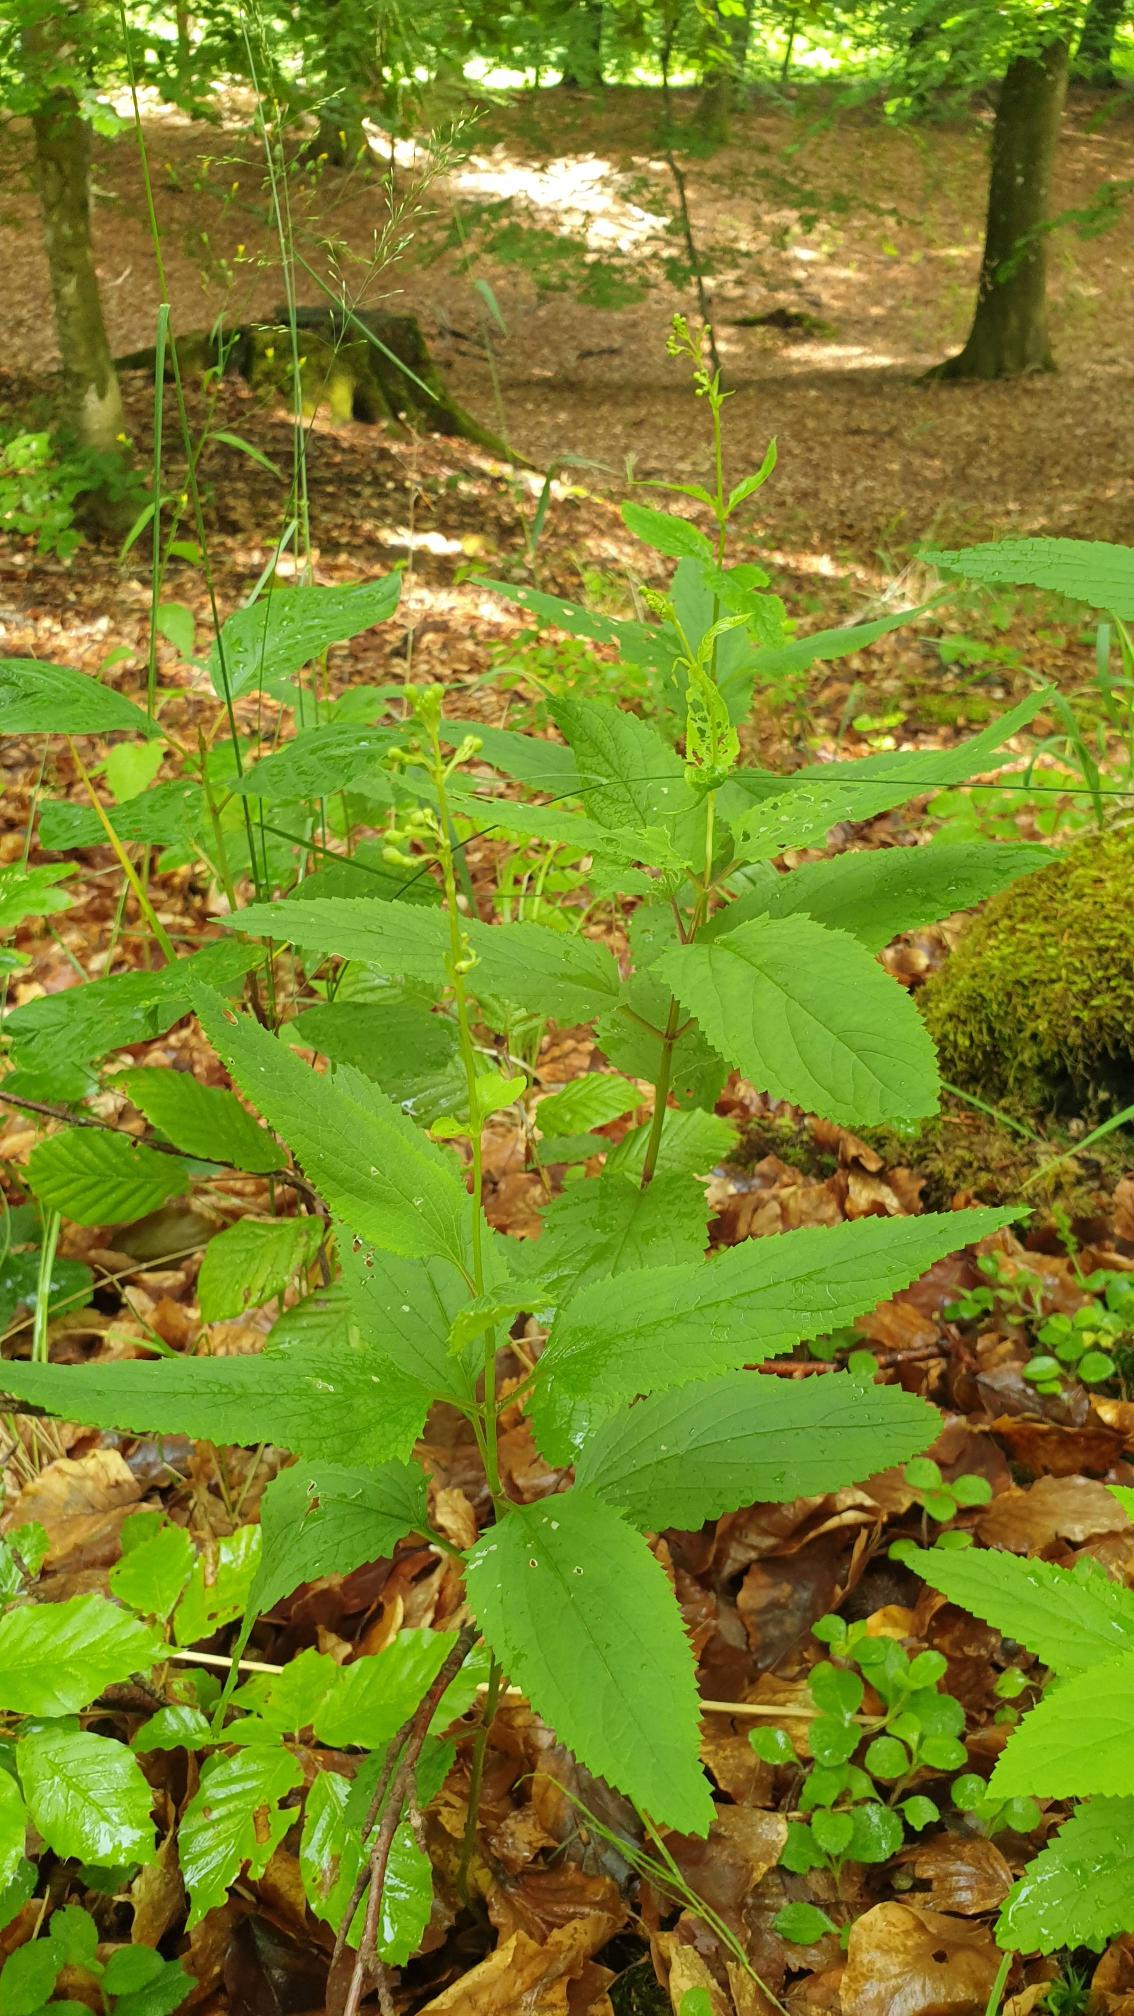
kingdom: Plantae
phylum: Tracheophyta
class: Magnoliopsida
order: Lamiales
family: Scrophulariaceae
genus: Scrophularia
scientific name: Scrophularia nodosa
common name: Knoldet brunrod
